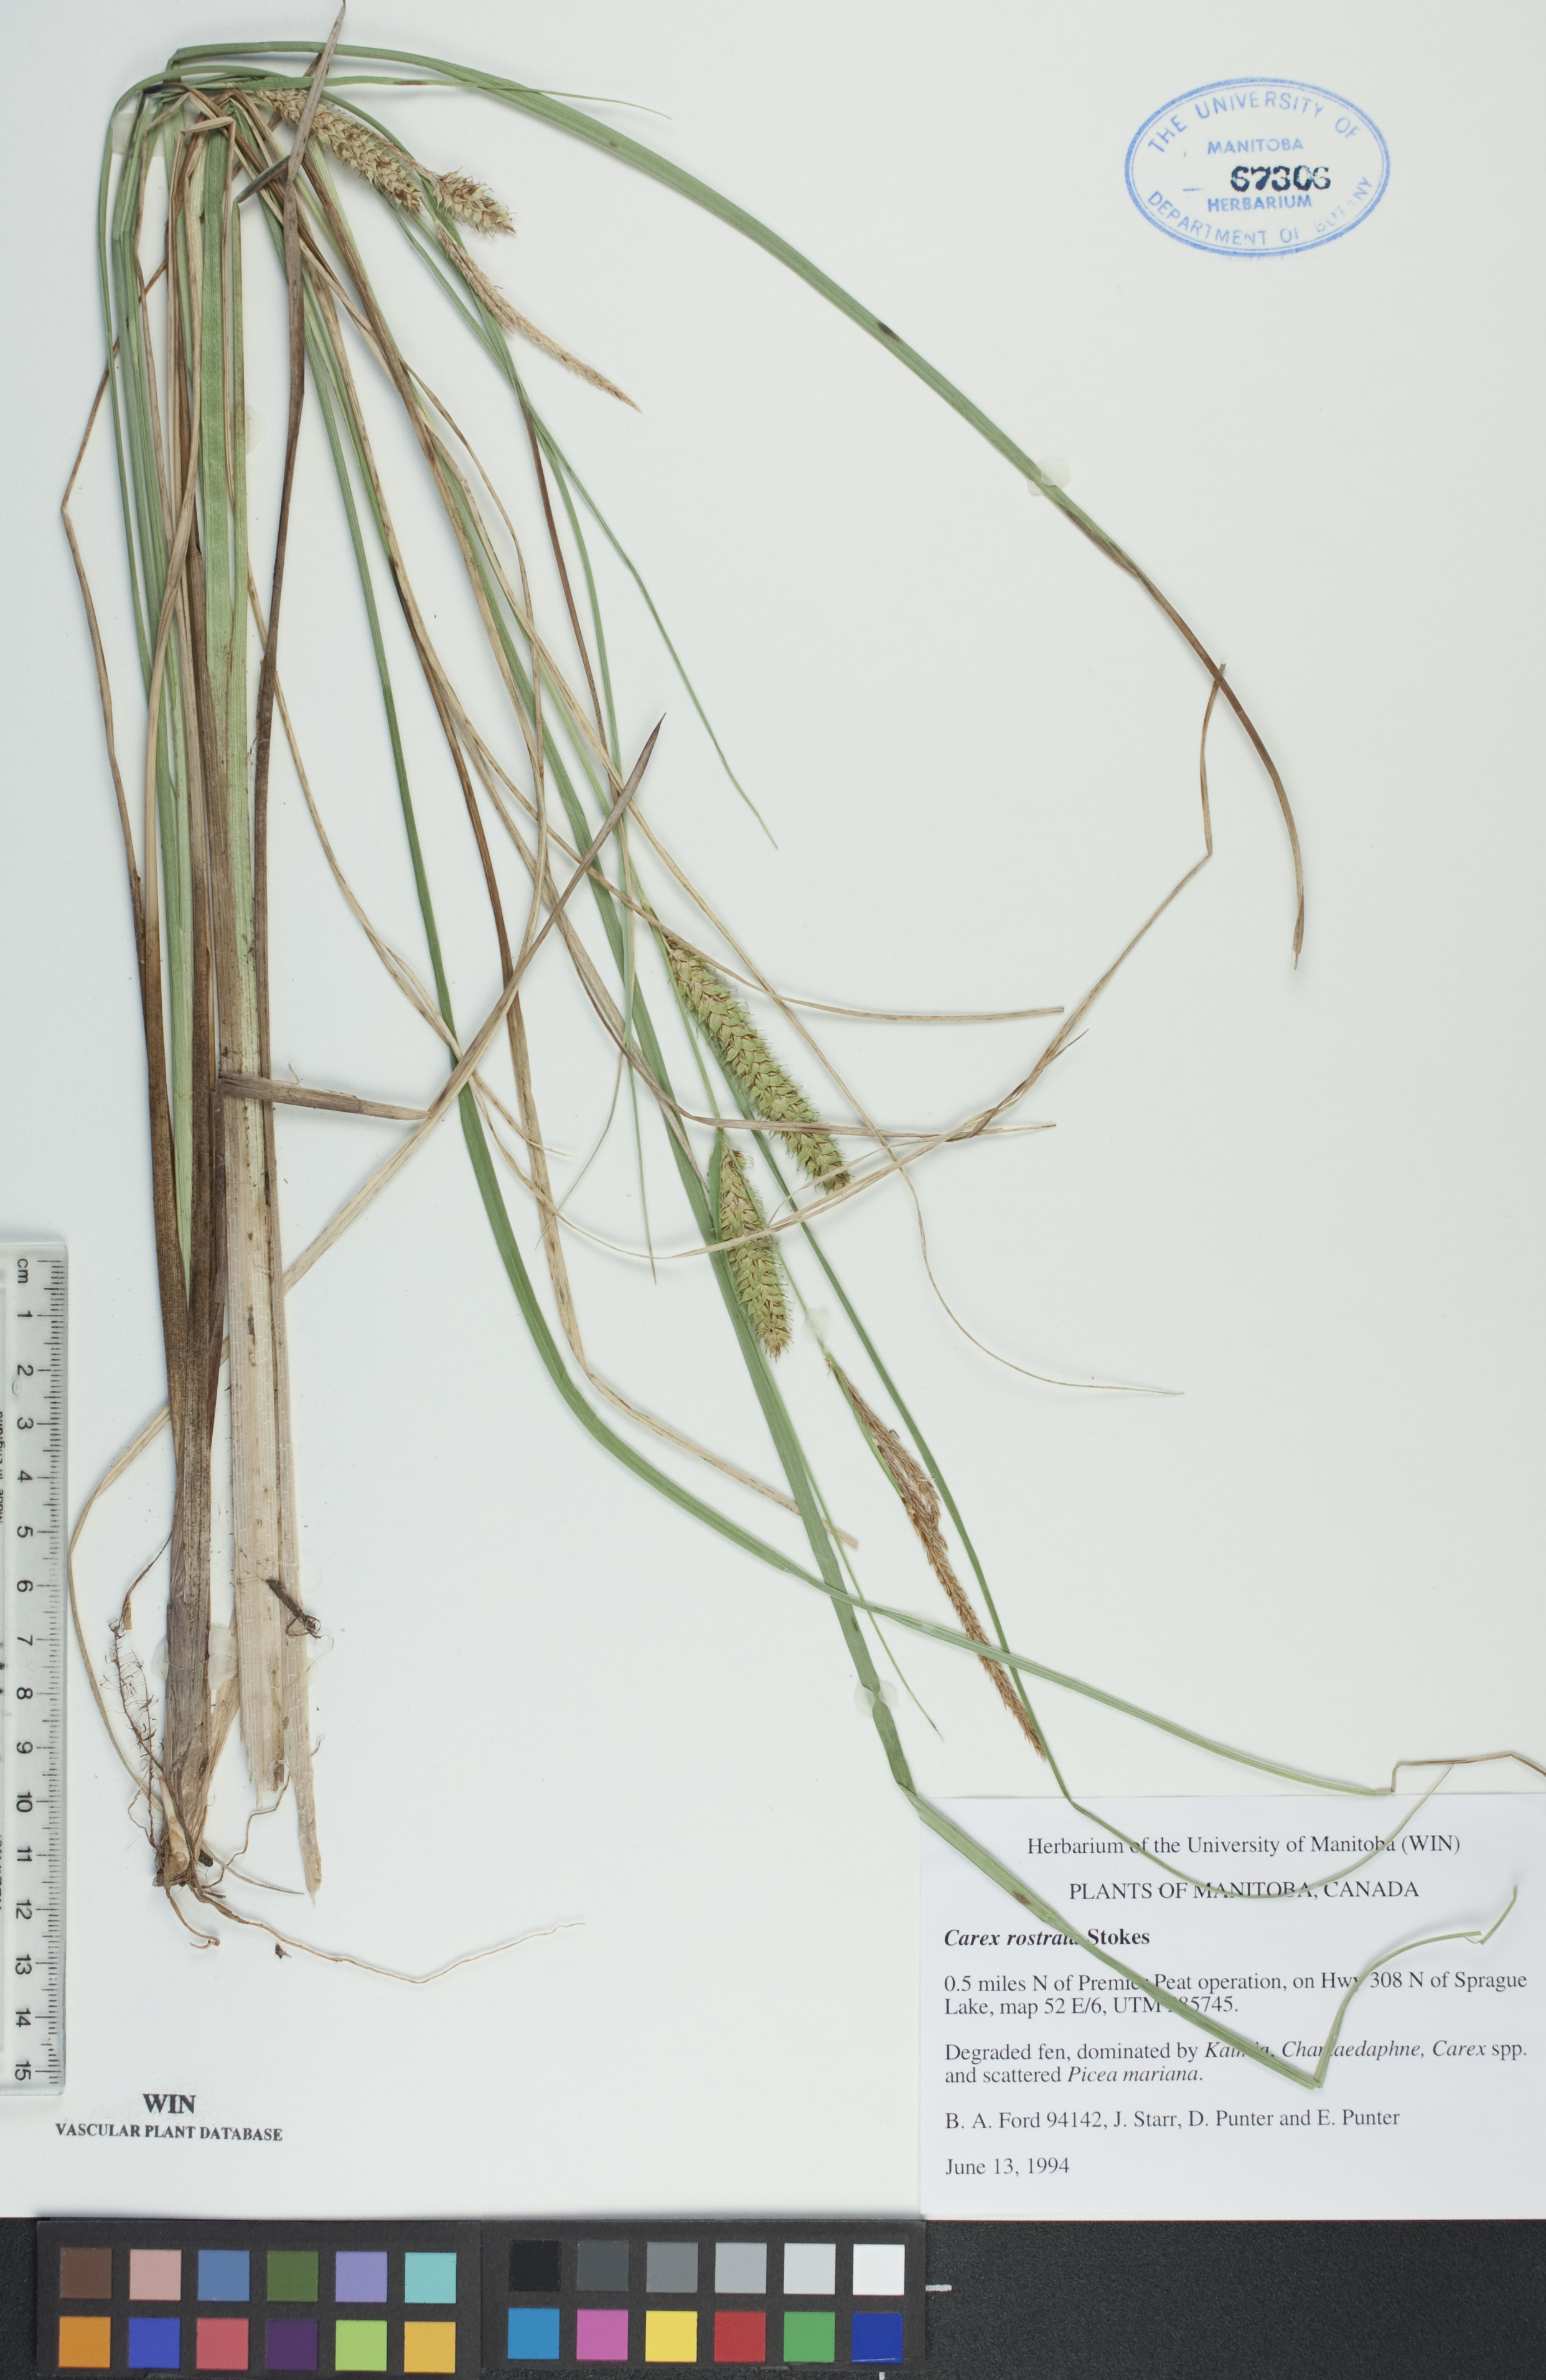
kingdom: Plantae
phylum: Tracheophyta
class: Liliopsida
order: Poales
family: Cyperaceae
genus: Carex
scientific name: Carex rostrata
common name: Bottle sedge
